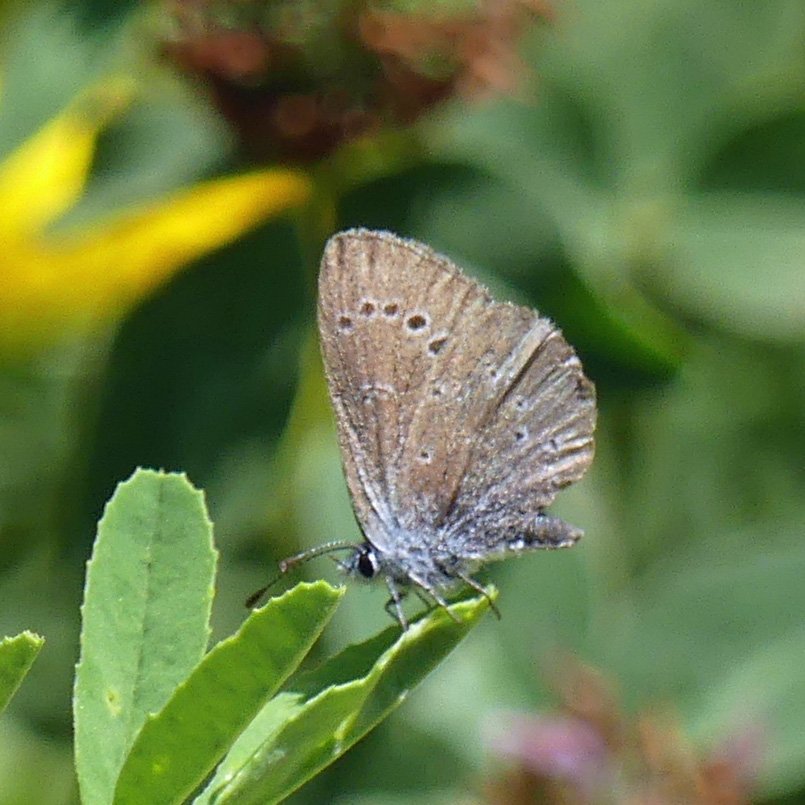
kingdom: Animalia
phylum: Arthropoda
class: Insecta
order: Lepidoptera
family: Lycaenidae
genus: Glaucopsyche
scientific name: Glaucopsyche lygdamus
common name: Silvery Blue
